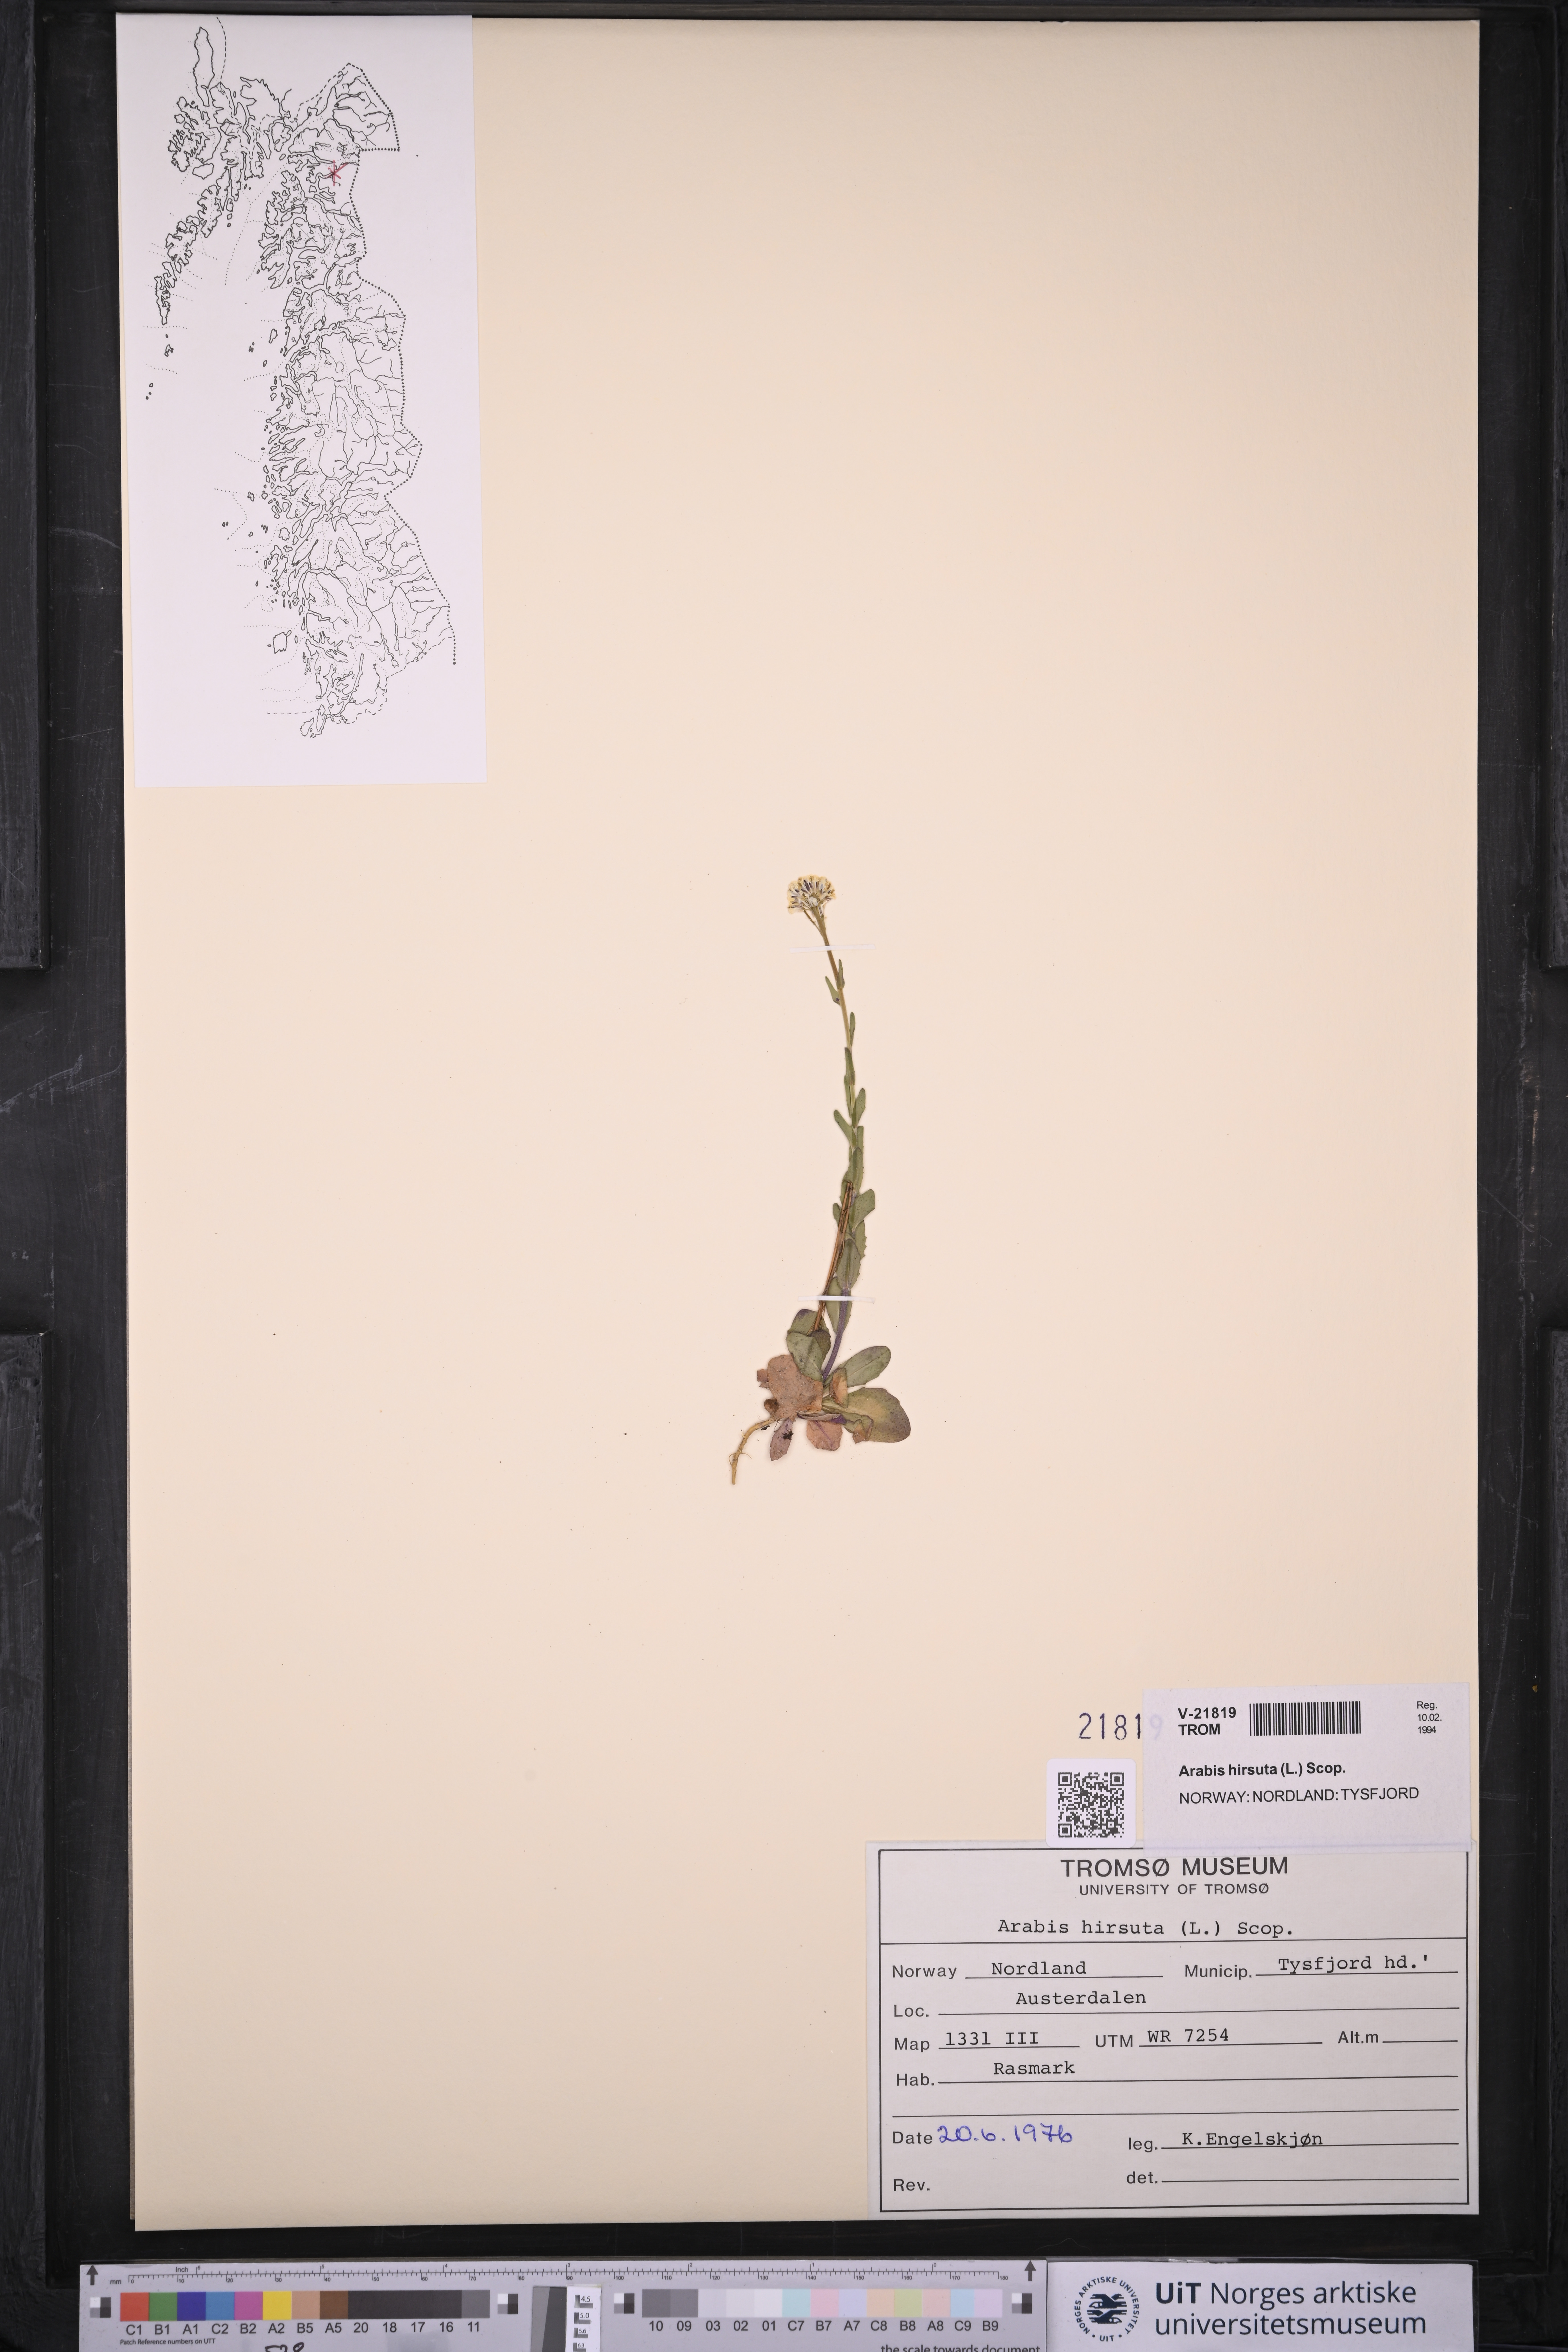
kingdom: Plantae
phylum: Tracheophyta
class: Magnoliopsida
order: Brassicales
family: Brassicaceae
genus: Arabis
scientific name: Arabis hirsuta
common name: Hairy rock-cress
